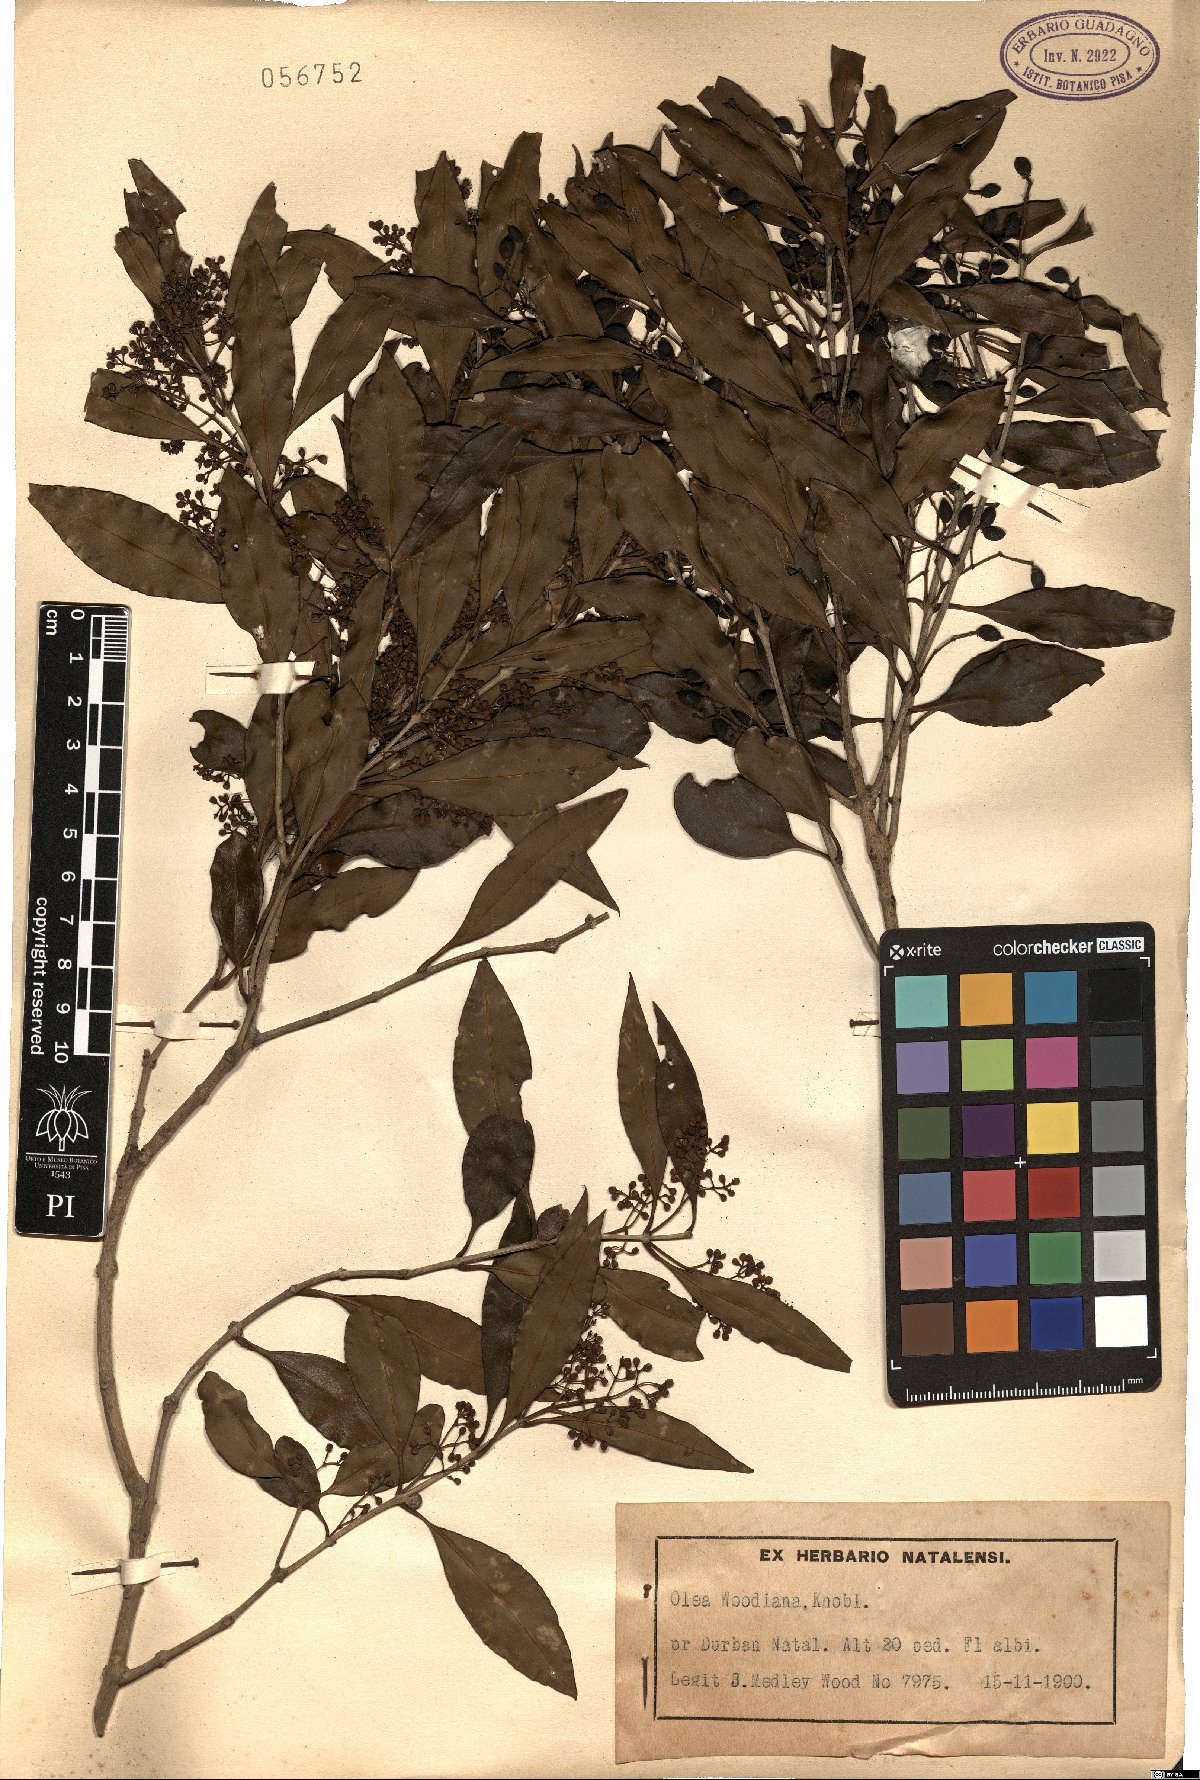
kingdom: Plantae
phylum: Tracheophyta
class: Magnoliopsida
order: Lamiales
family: Oleaceae
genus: Olea
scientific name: Olea woodiana
